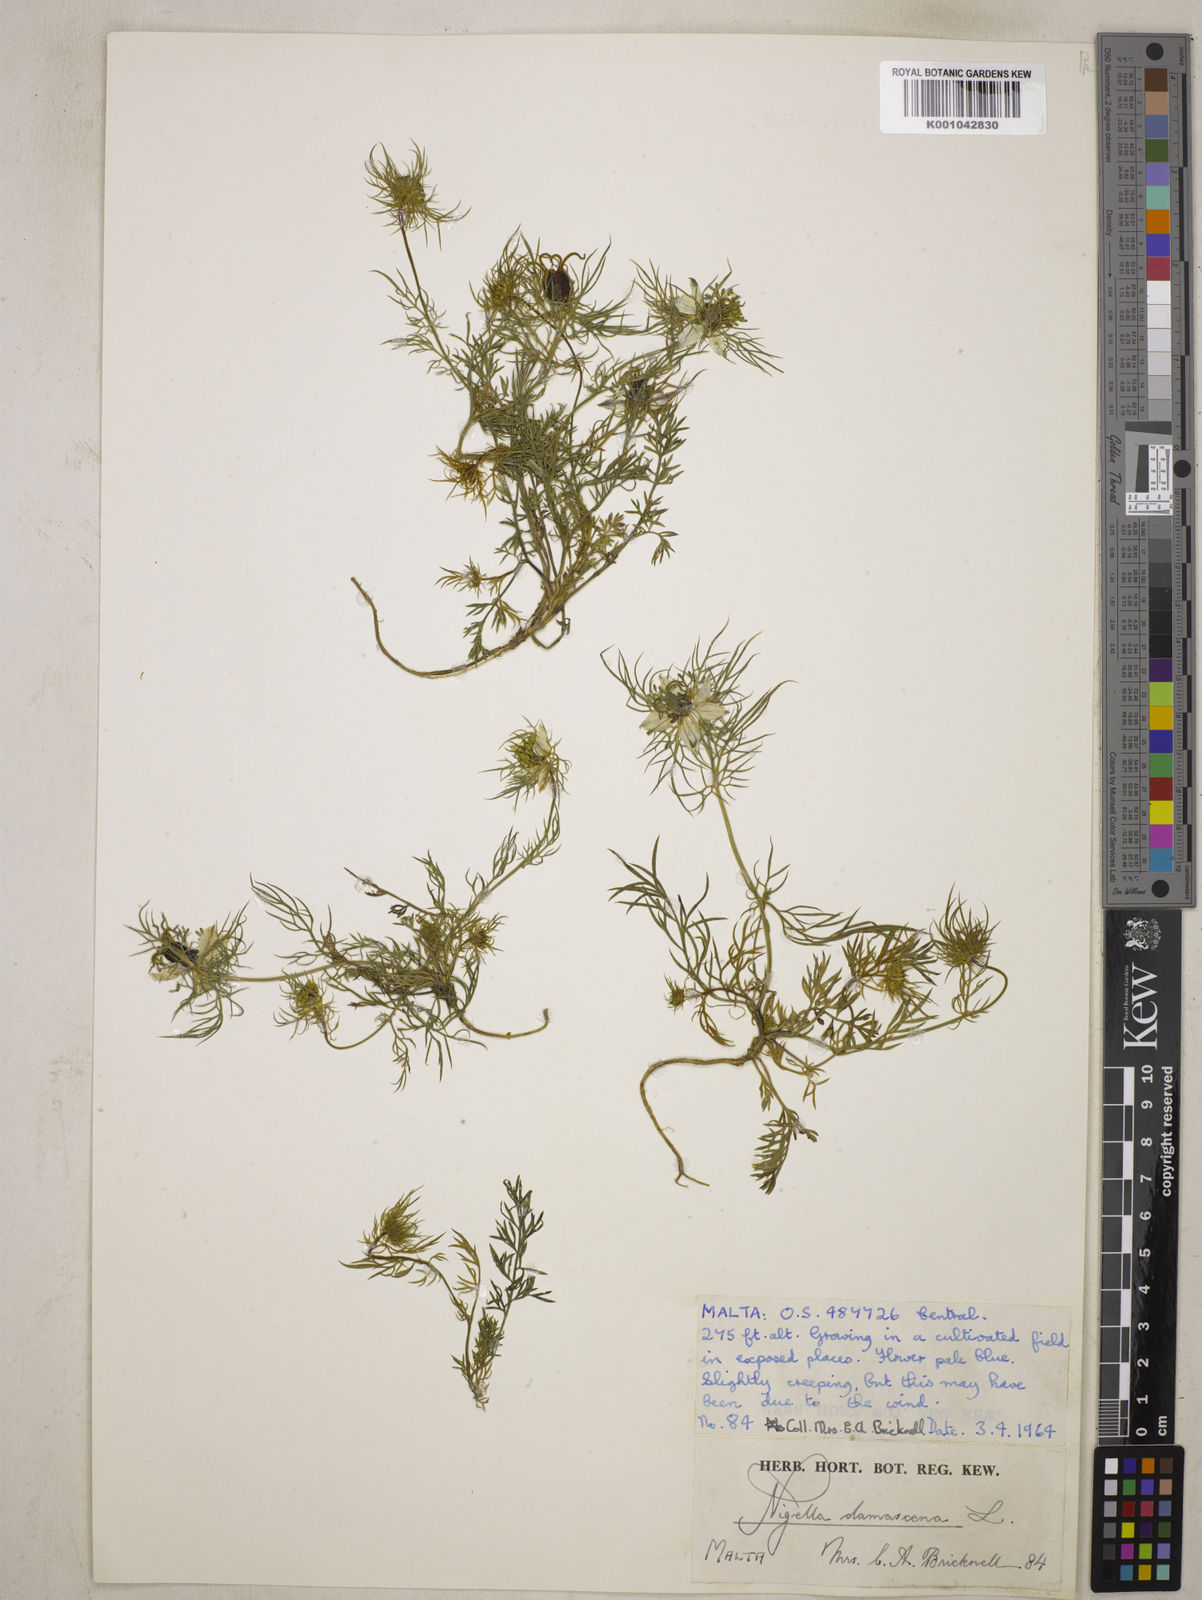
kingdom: Plantae
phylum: Tracheophyta
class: Magnoliopsida
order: Ranunculales
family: Ranunculaceae
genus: Nigella
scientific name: Nigella damascena
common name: Love-in-a-mist
